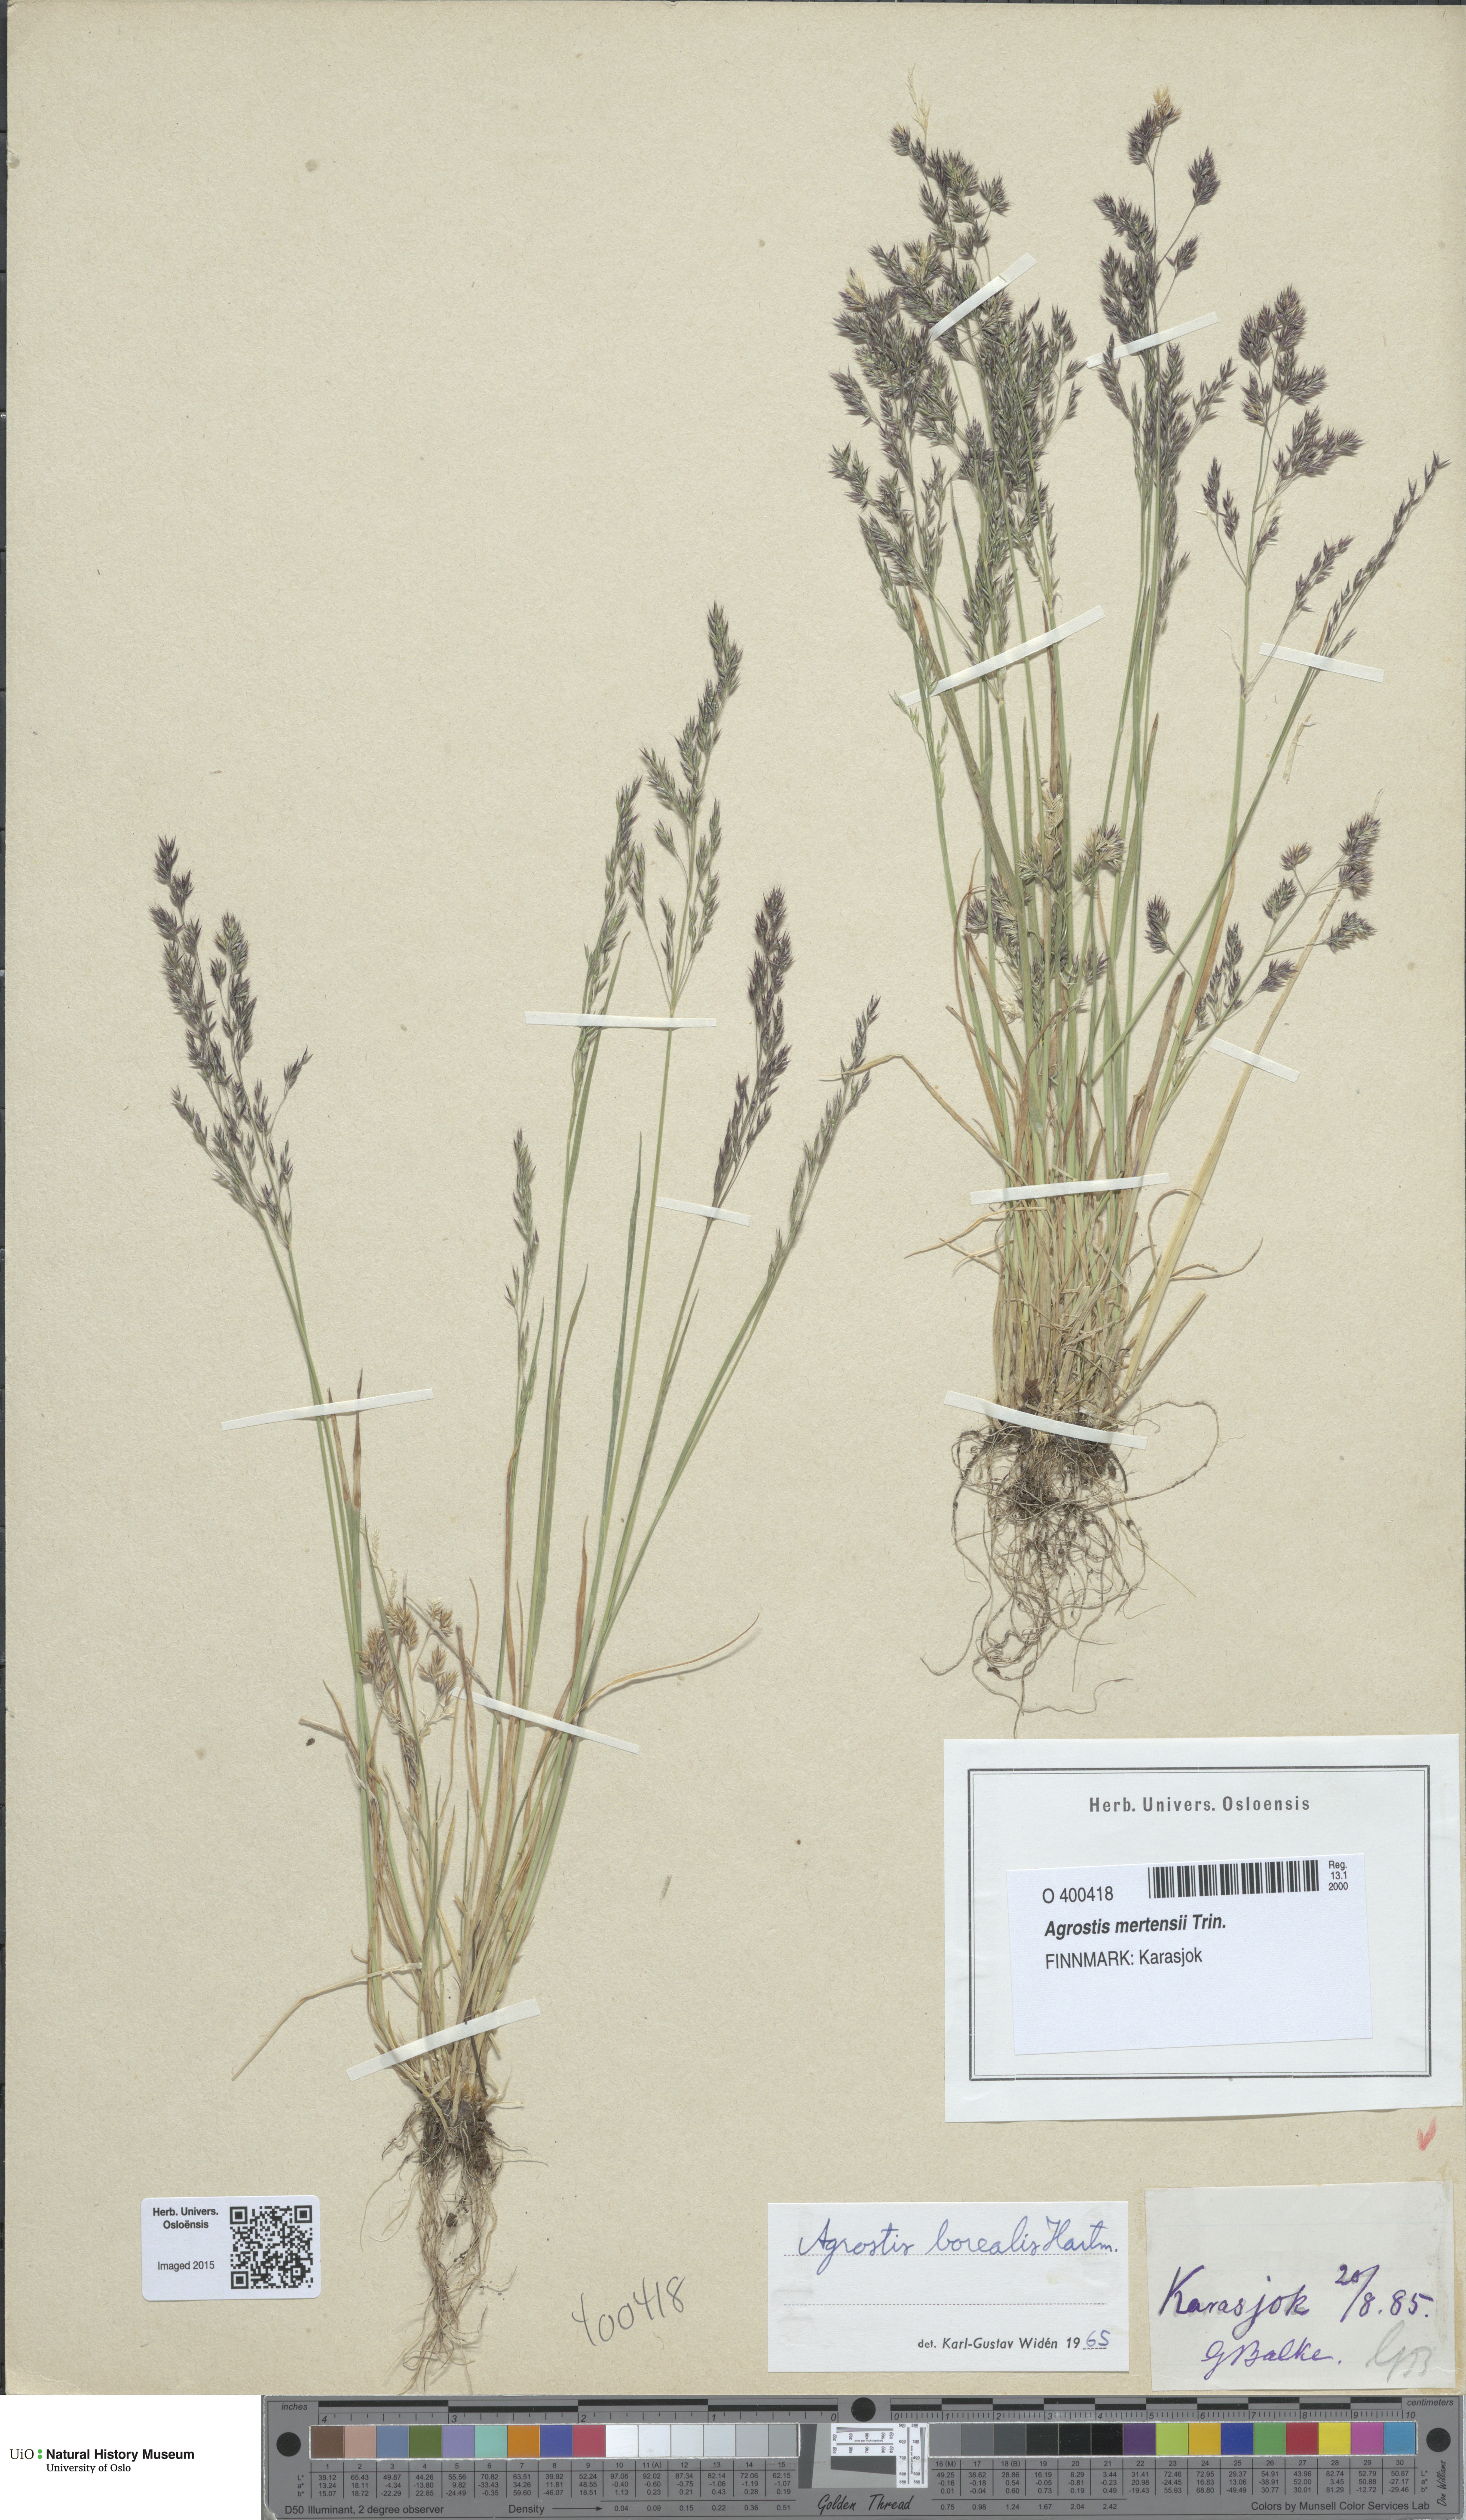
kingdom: Plantae
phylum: Tracheophyta
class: Liliopsida
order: Poales
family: Poaceae
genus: Agrostis
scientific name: Agrostis mertensii
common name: Northern bent
